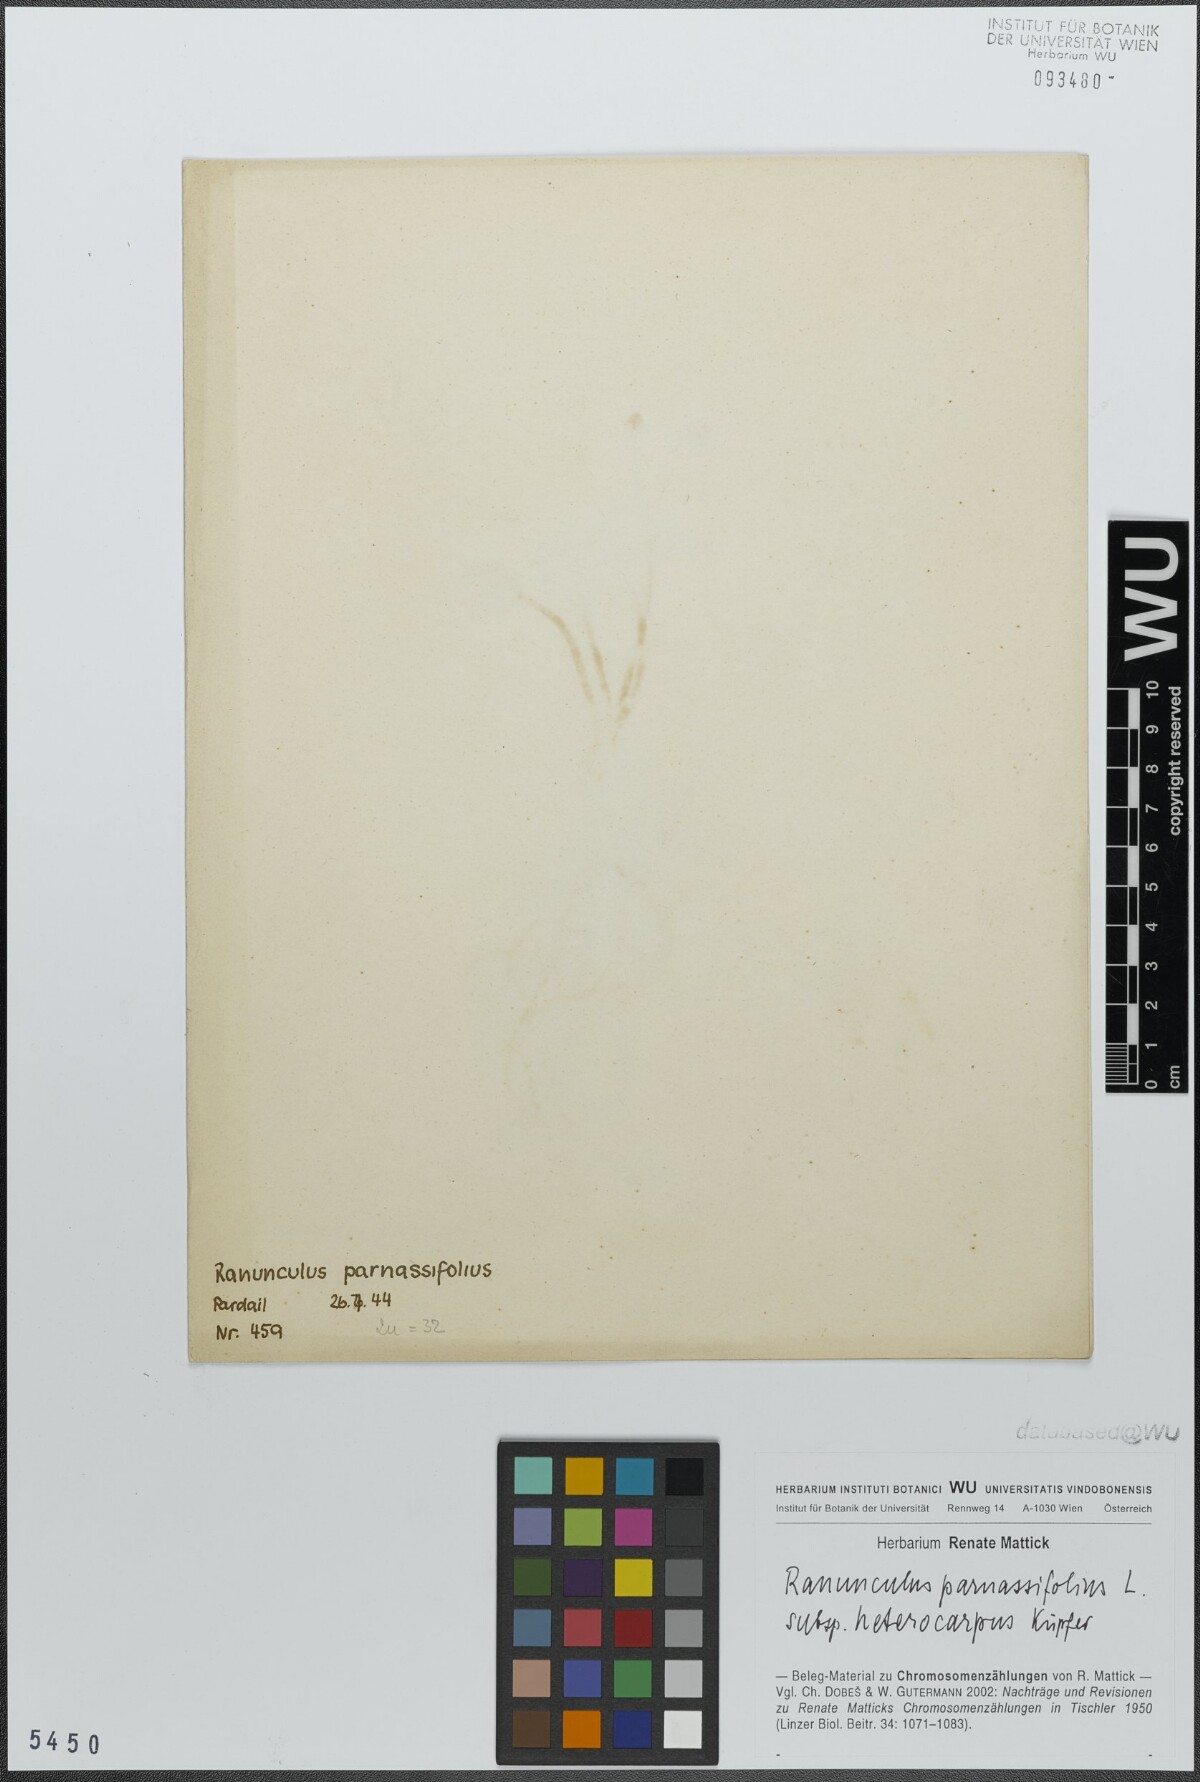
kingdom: Plantae
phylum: Tracheophyta
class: Magnoliopsida
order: Ranunculales
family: Ranunculaceae
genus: Ranunculus
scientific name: Ranunculus parnassiifolius
